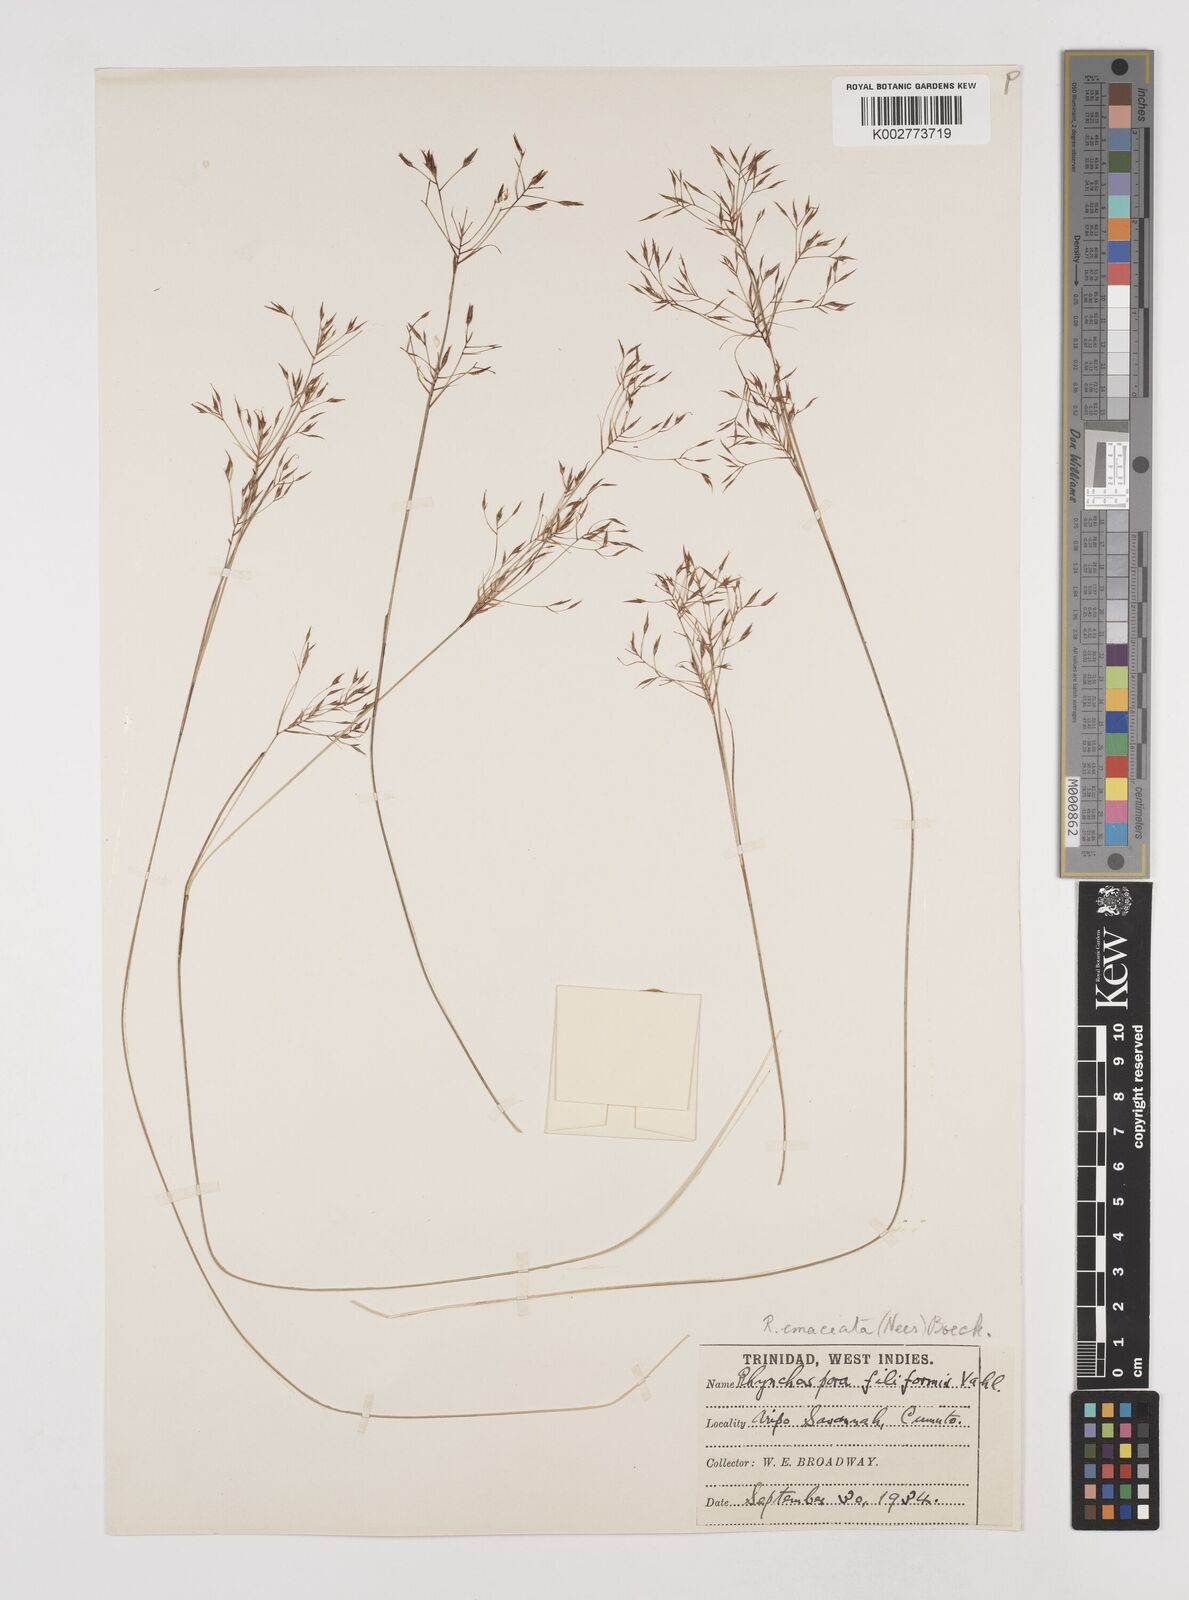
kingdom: Plantae
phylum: Tracheophyta
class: Liliopsida
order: Poales
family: Cyperaceae
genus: Rhynchospora
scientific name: Rhynchospora tenuis
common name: Quill beaksedge
